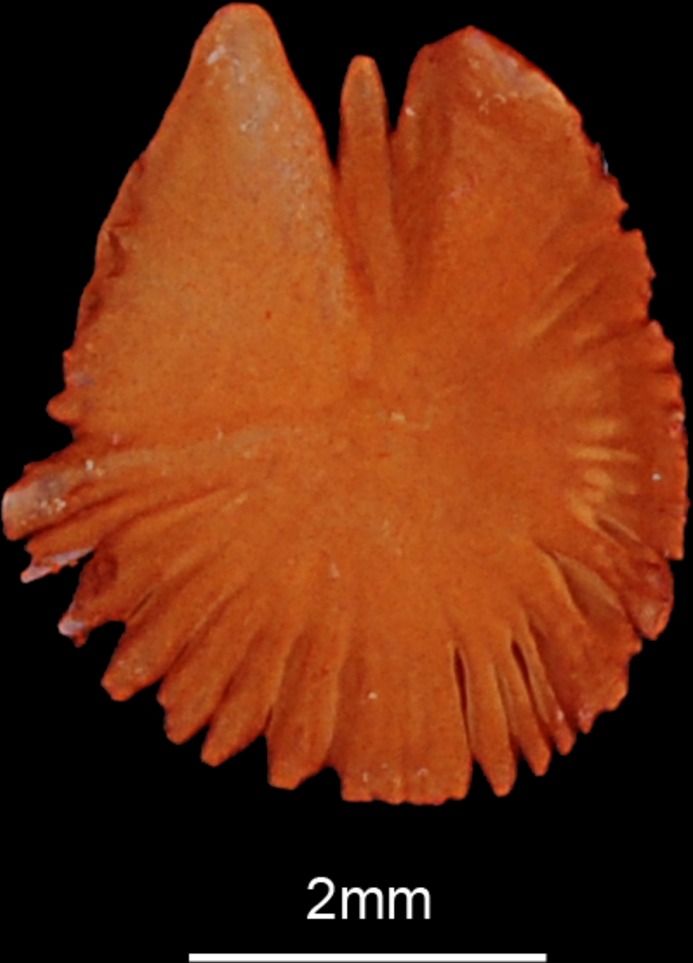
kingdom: Animalia
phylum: Chordata
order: Characiformes
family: Distichodontidae
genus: Distichodus
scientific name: Distichodus lusosso
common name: Longsnout distichodus
